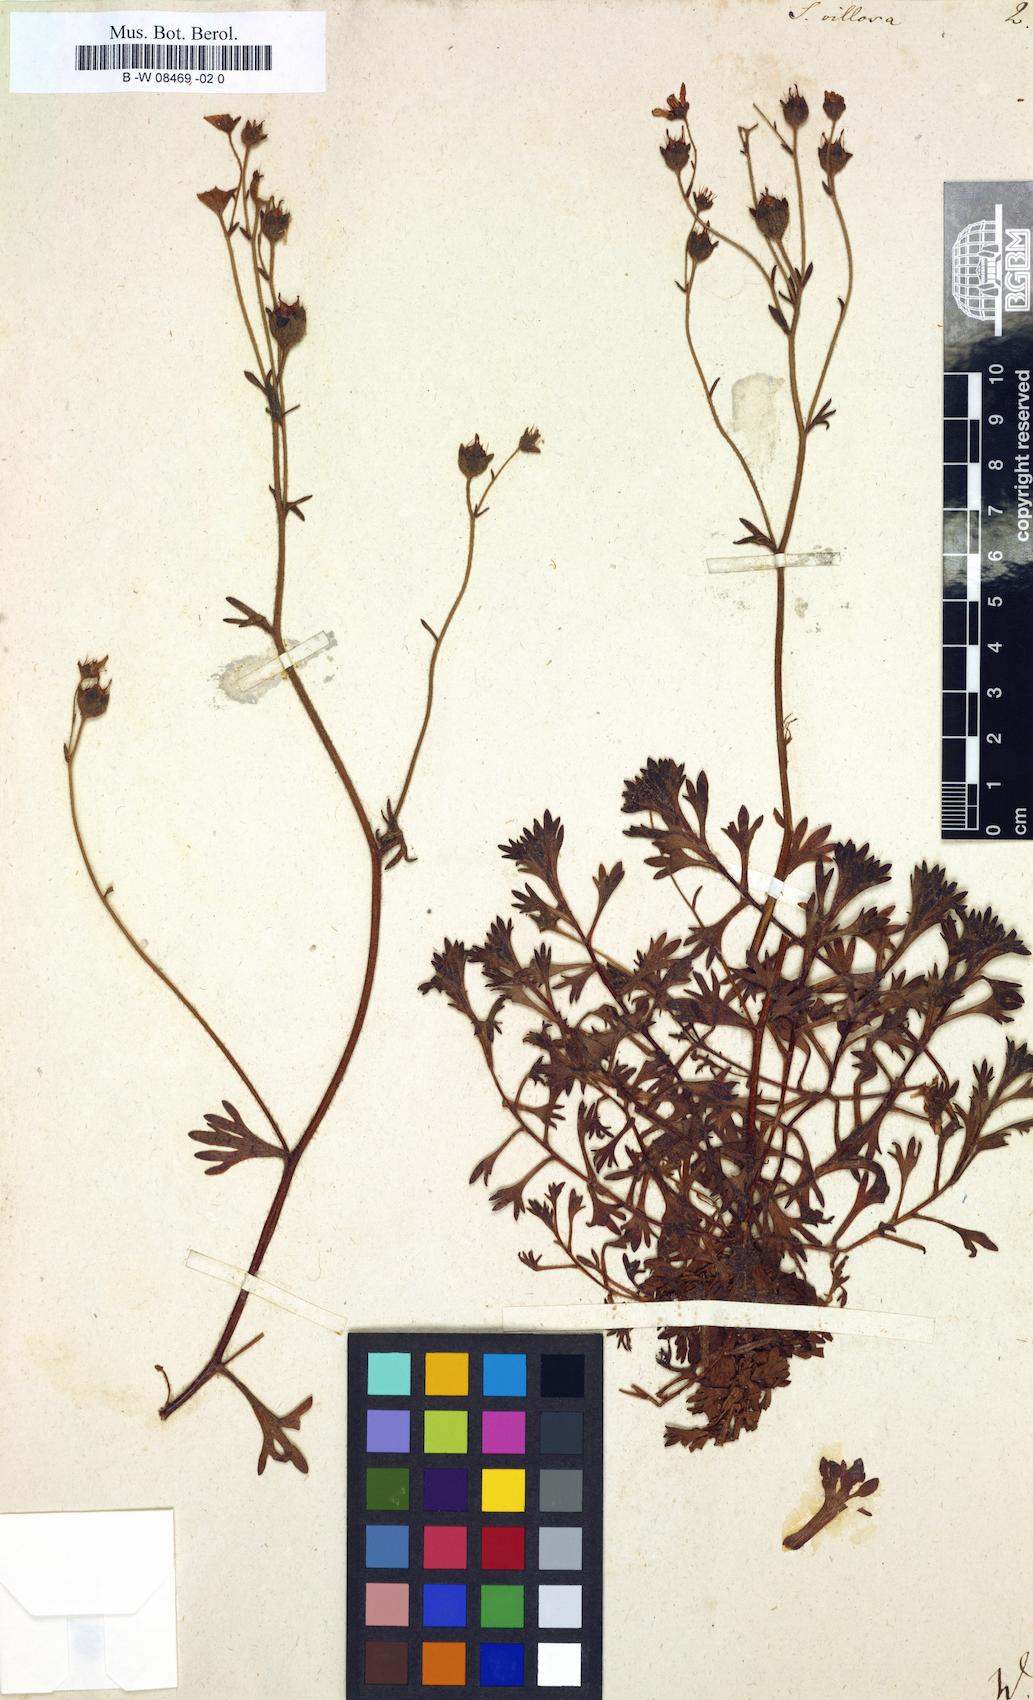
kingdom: Plantae
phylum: Tracheophyta
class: Magnoliopsida
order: Saxifragales
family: Saxifragaceae
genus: Saxifraga
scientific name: Saxifraga hypnoides
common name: Mossy saxifrage
